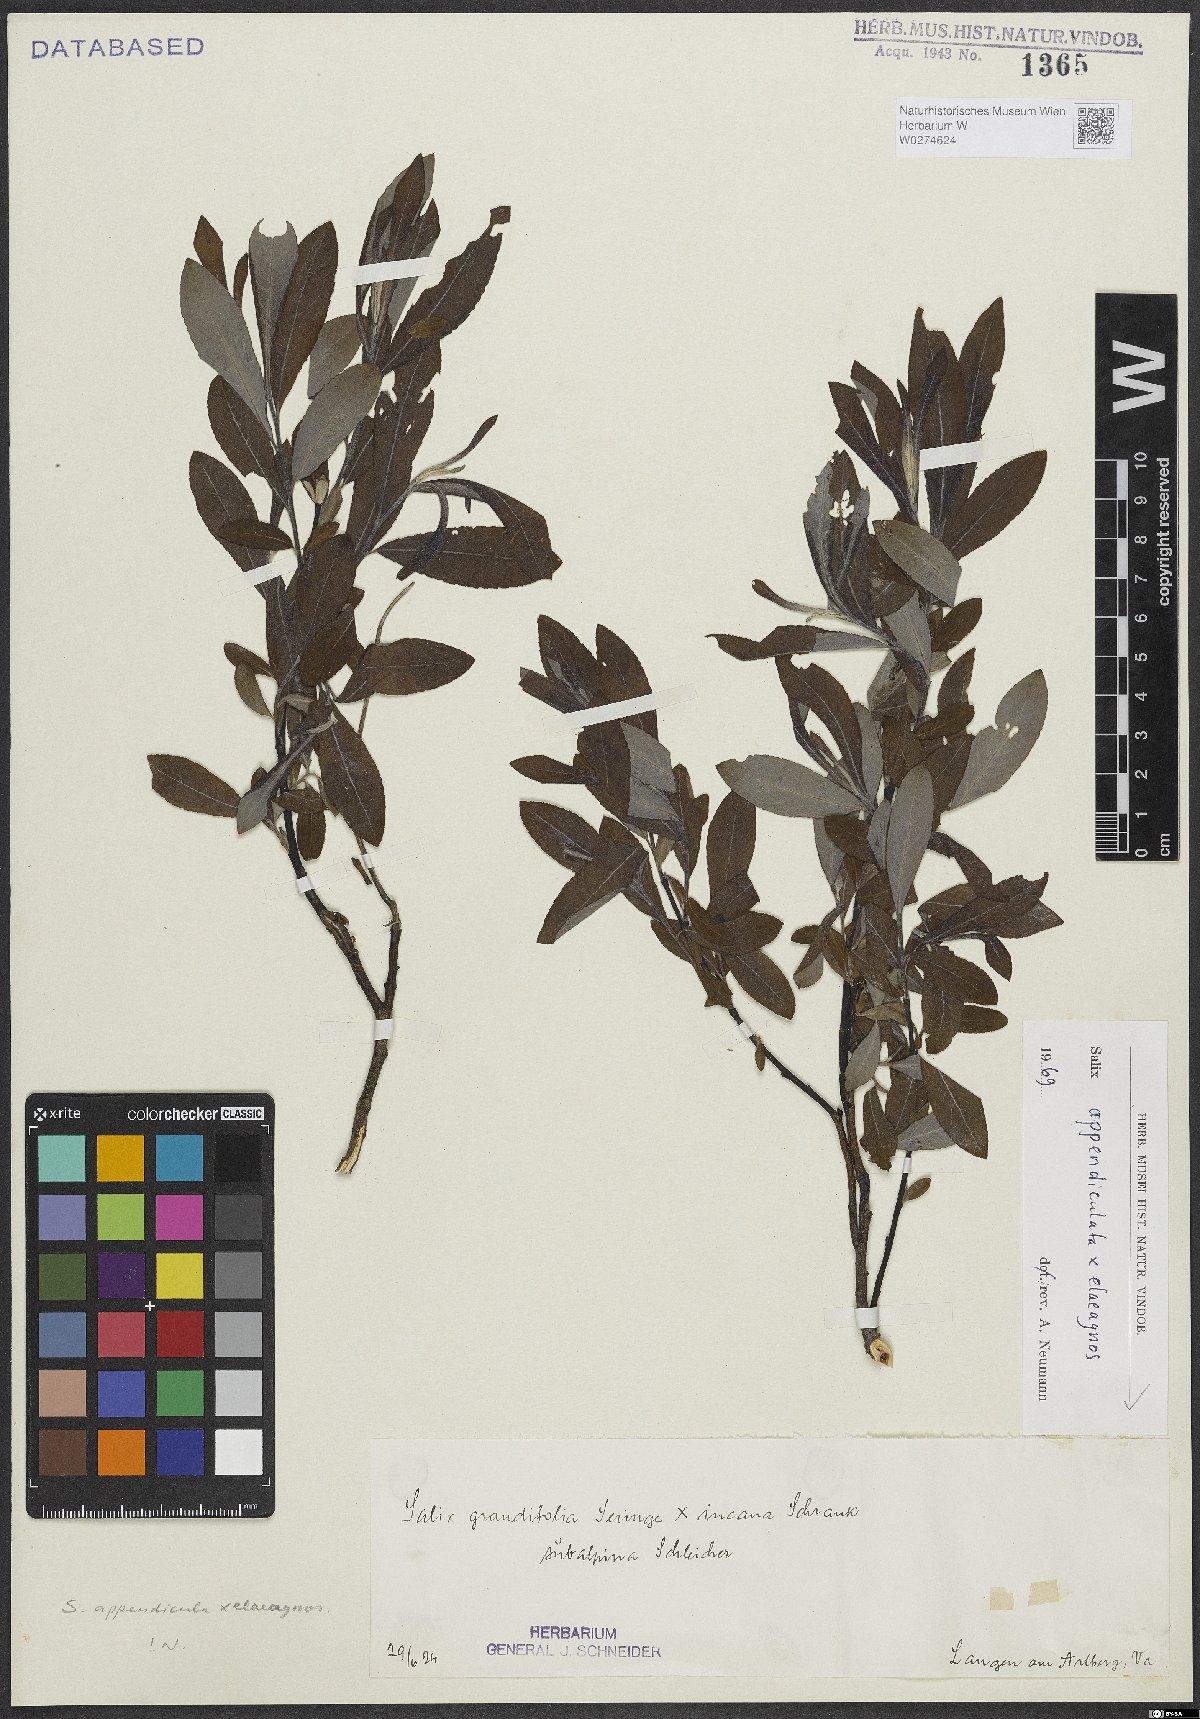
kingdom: Plantae
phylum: Tracheophyta
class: Magnoliopsida
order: Malpighiales
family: Salicaceae
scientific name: Salicaceae
